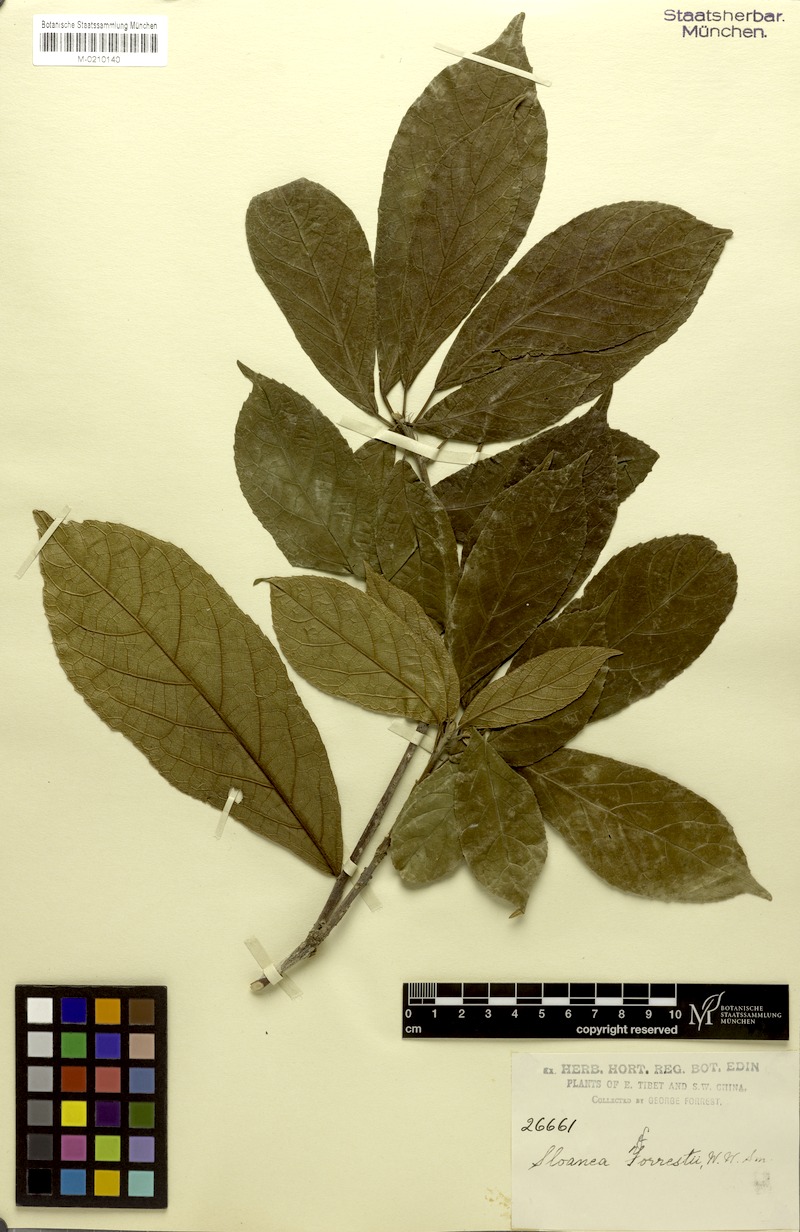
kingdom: Plantae
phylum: Tracheophyta
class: Magnoliopsida
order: Oxalidales
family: Elaeocarpaceae
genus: Sloanea
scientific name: Sloanea sterculiacea
